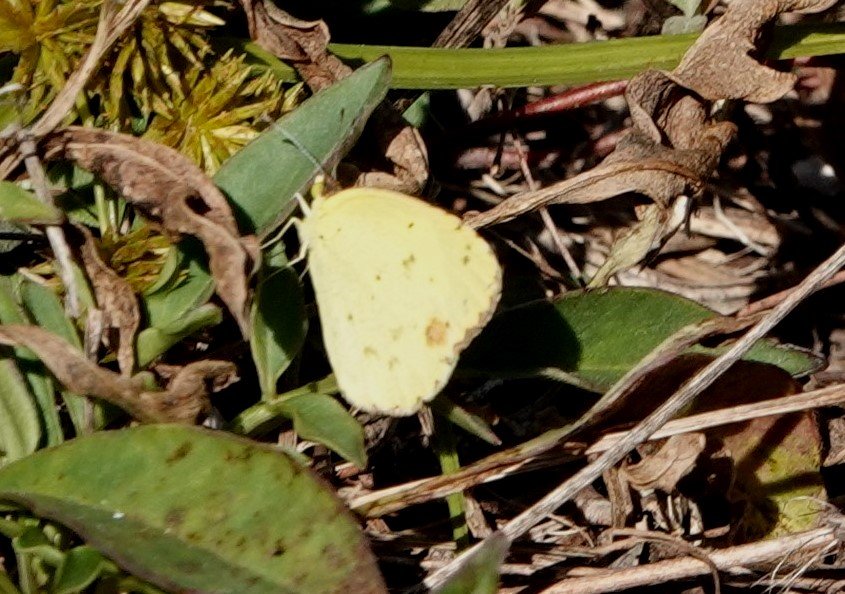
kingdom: Animalia
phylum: Arthropoda
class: Insecta
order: Lepidoptera
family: Pieridae
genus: Pyrisitia
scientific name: Pyrisitia lisa
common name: Little Yellow
